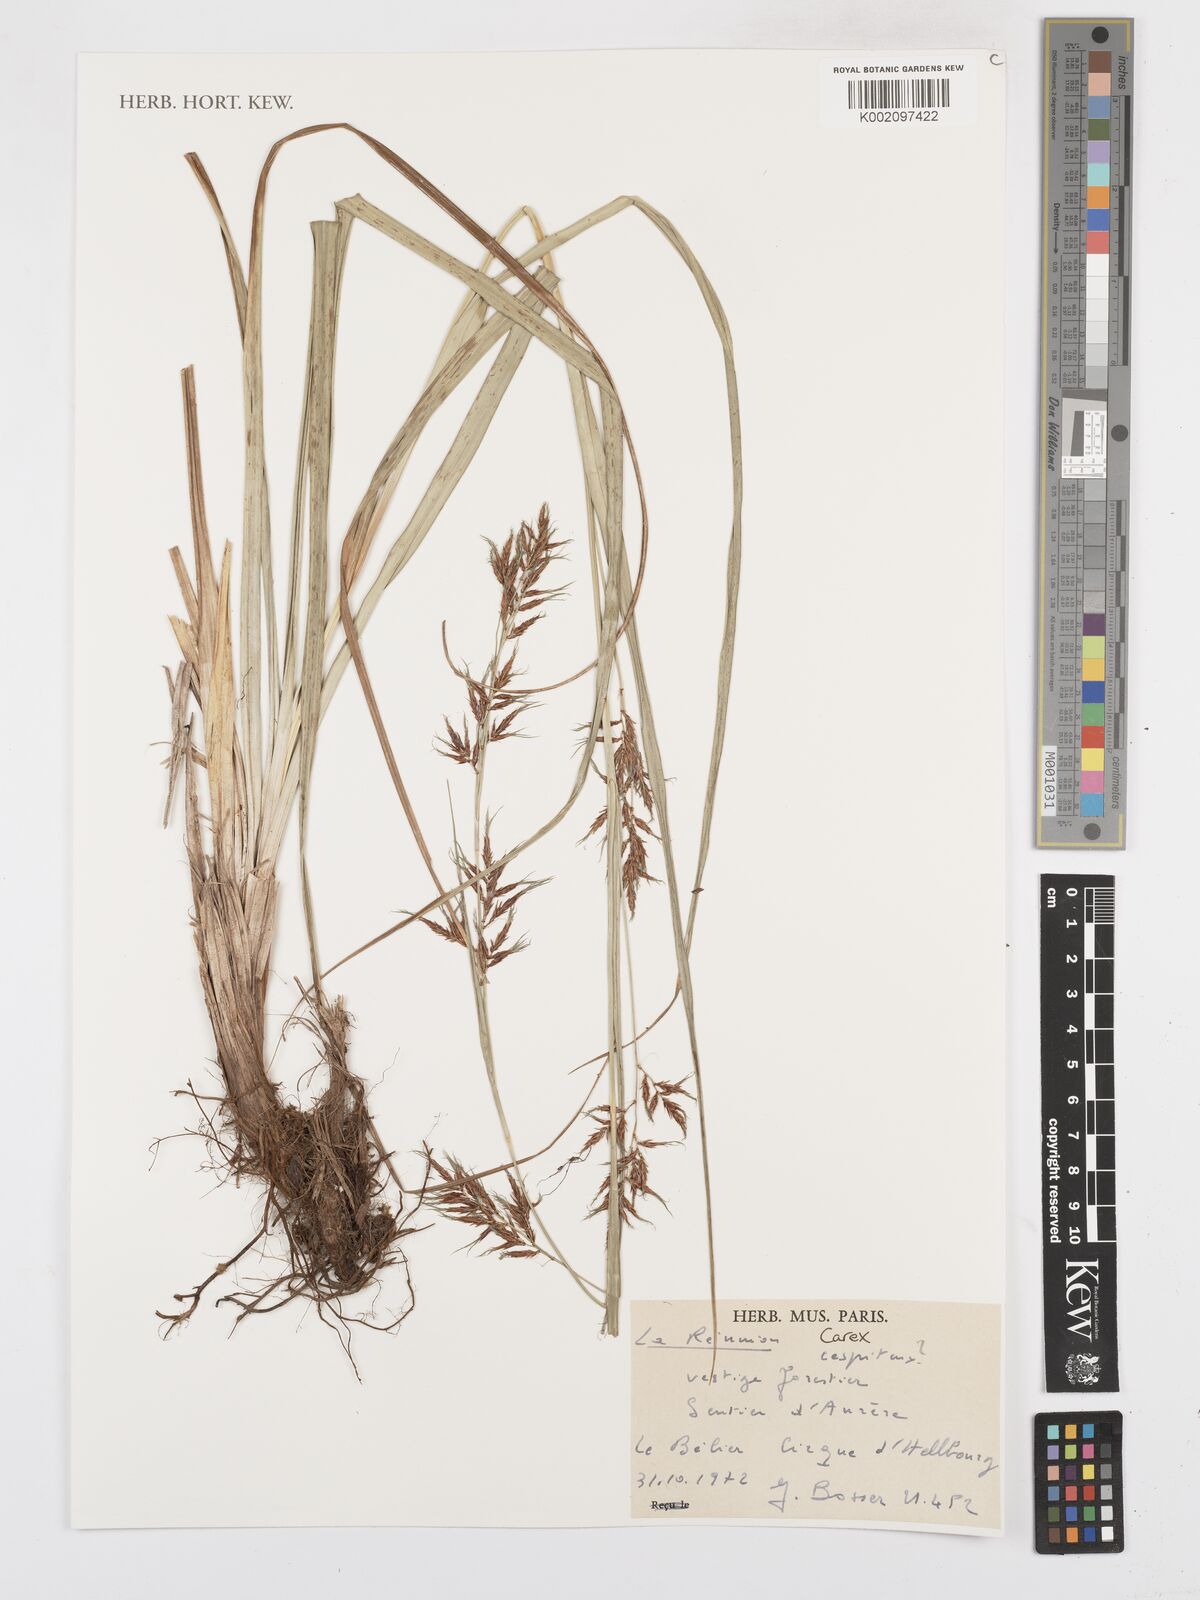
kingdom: Plantae
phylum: Tracheophyta
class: Liliopsida
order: Poales
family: Cyperaceae
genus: Carex
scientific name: Carex
